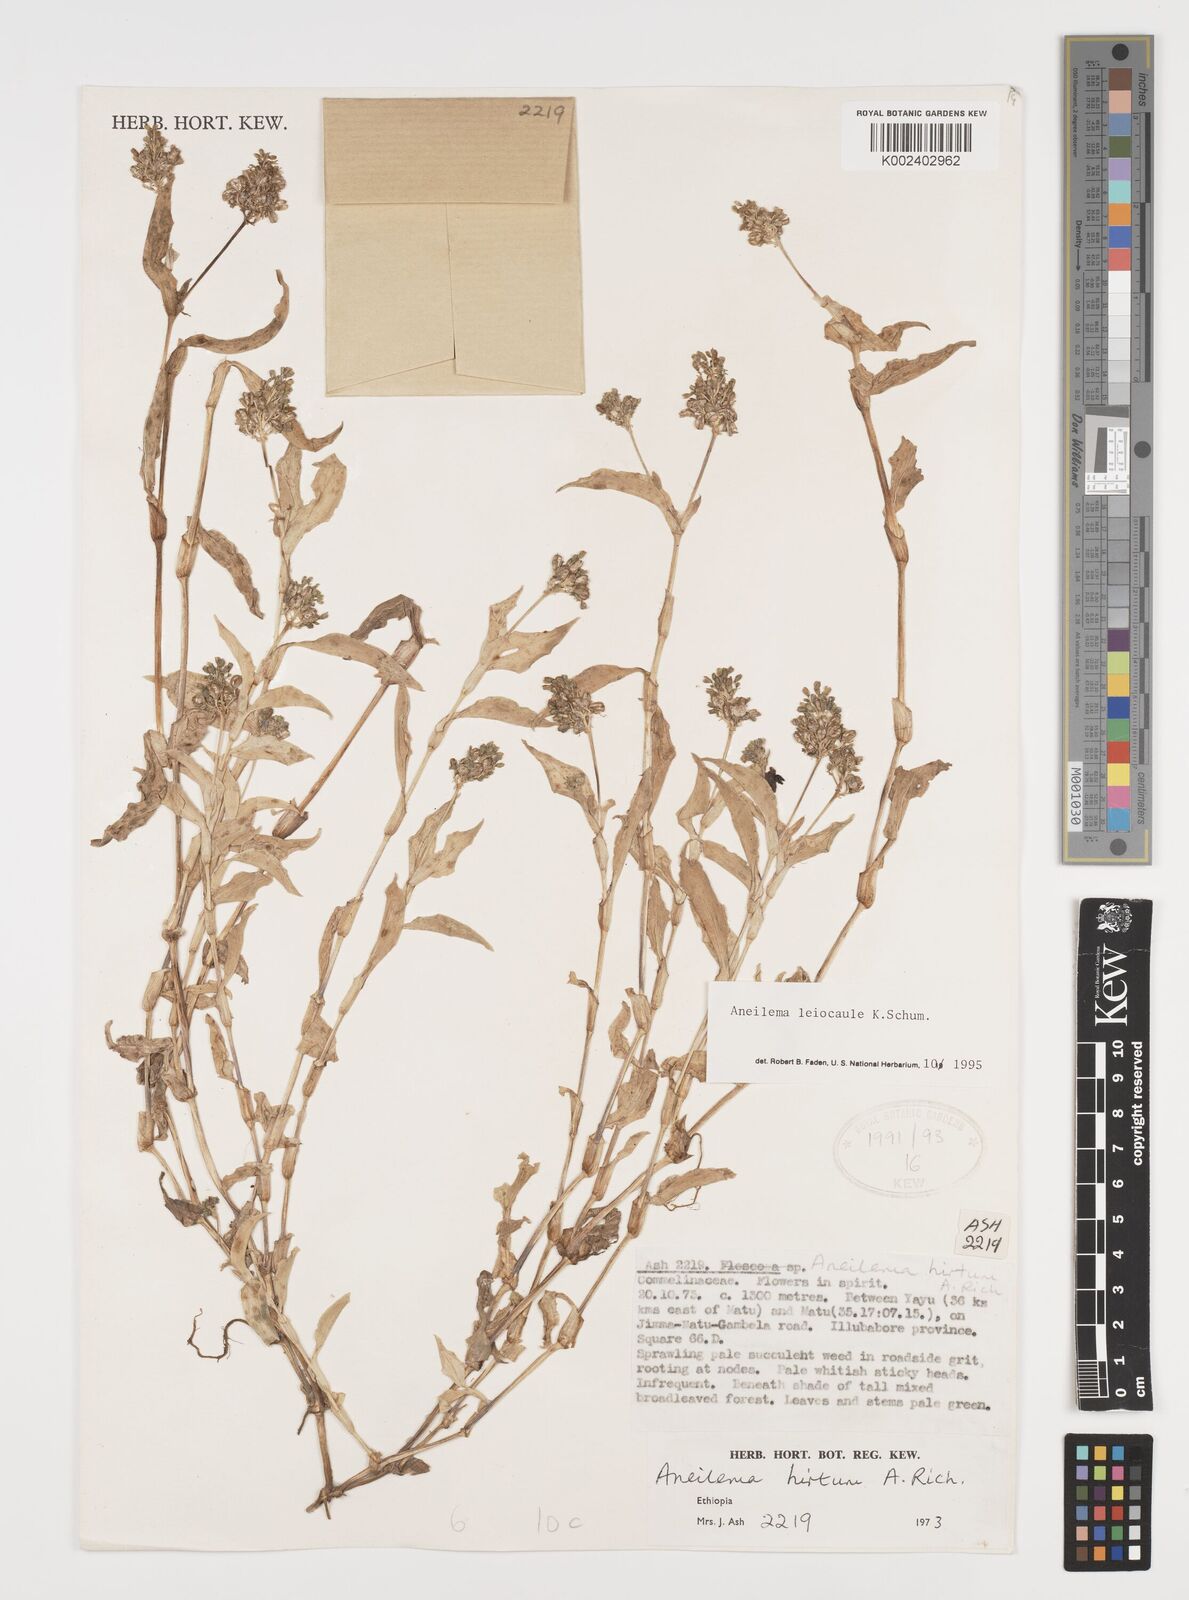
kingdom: Plantae
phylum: Tracheophyta
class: Liliopsida
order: Commelinales
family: Commelinaceae
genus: Aneilema
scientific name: Aneilema leiocaule
